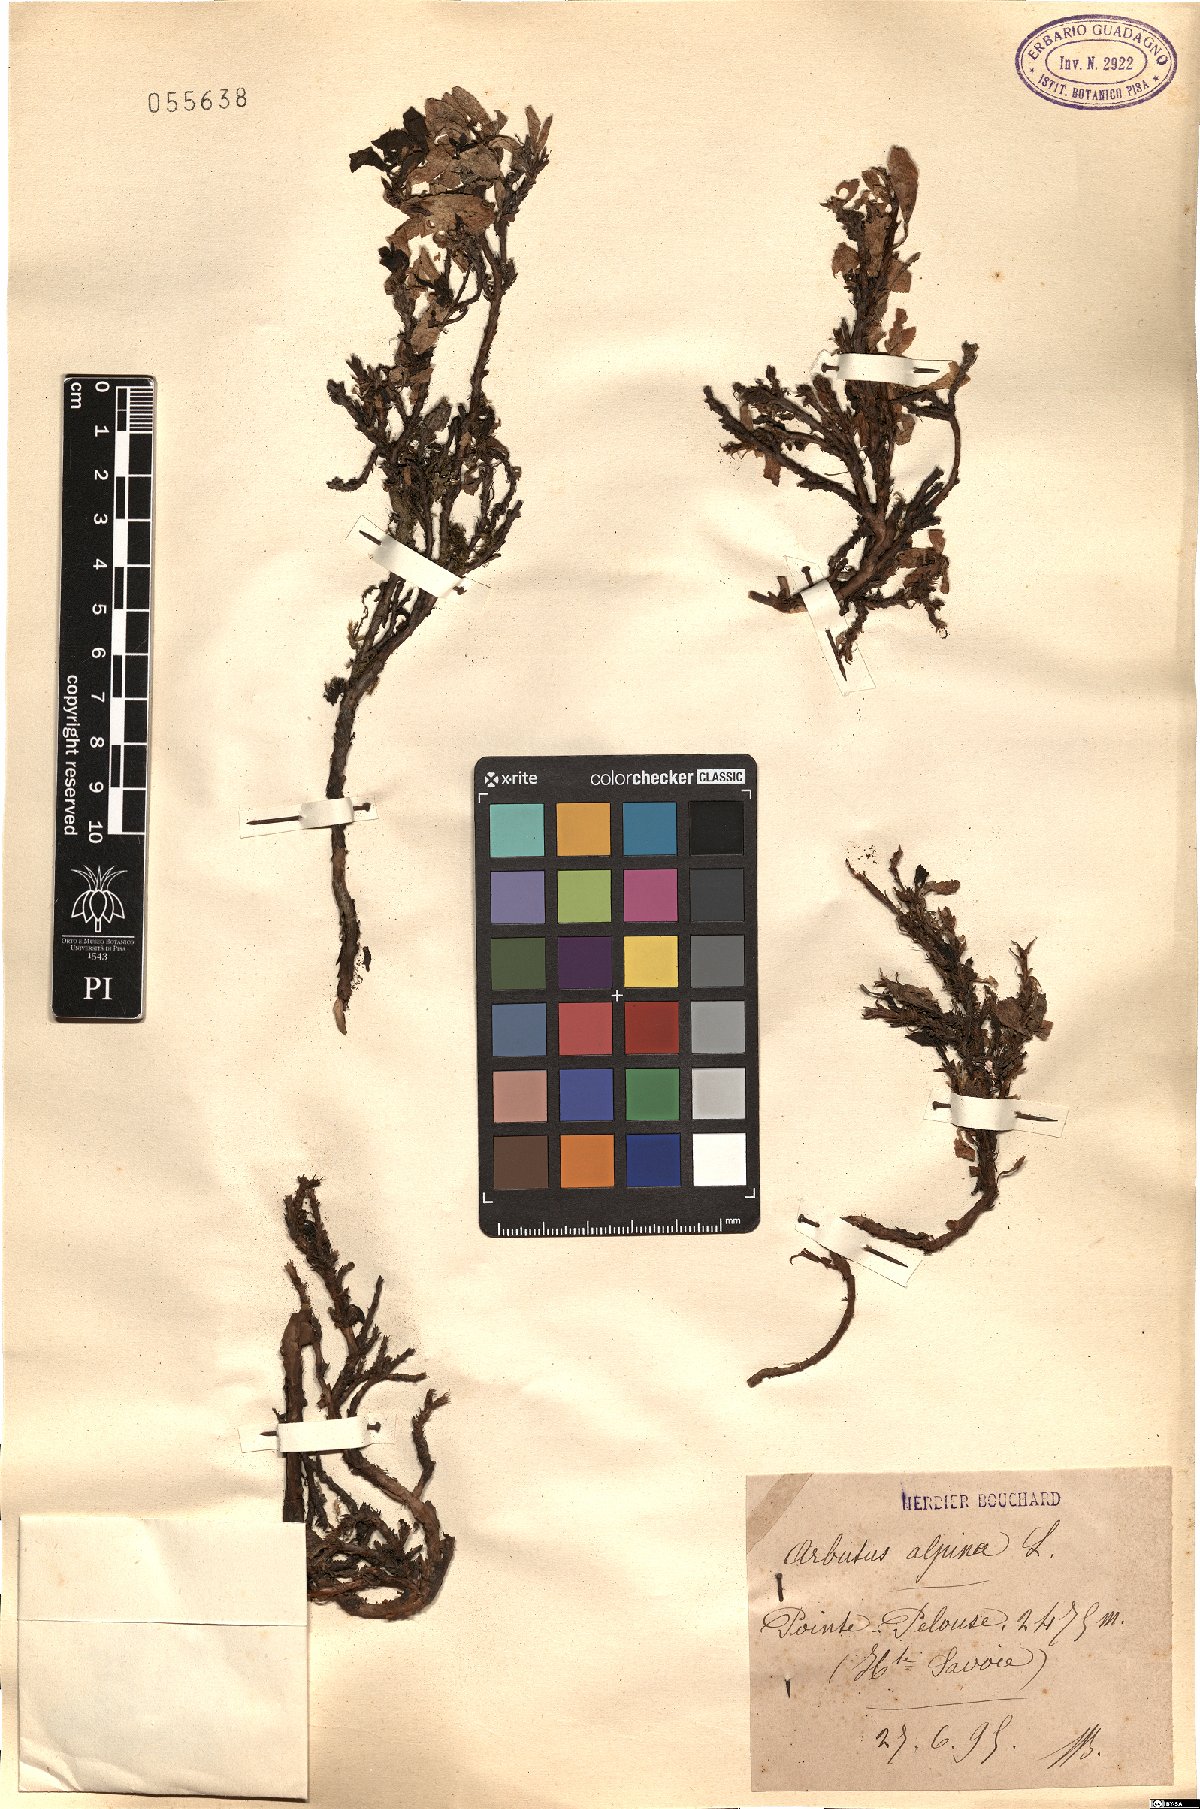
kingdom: Plantae
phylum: Tracheophyta
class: Magnoliopsida
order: Ericales
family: Ericaceae
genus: Arctostaphylos
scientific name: Arctostaphylos alpinus
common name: Alpine bearberry
